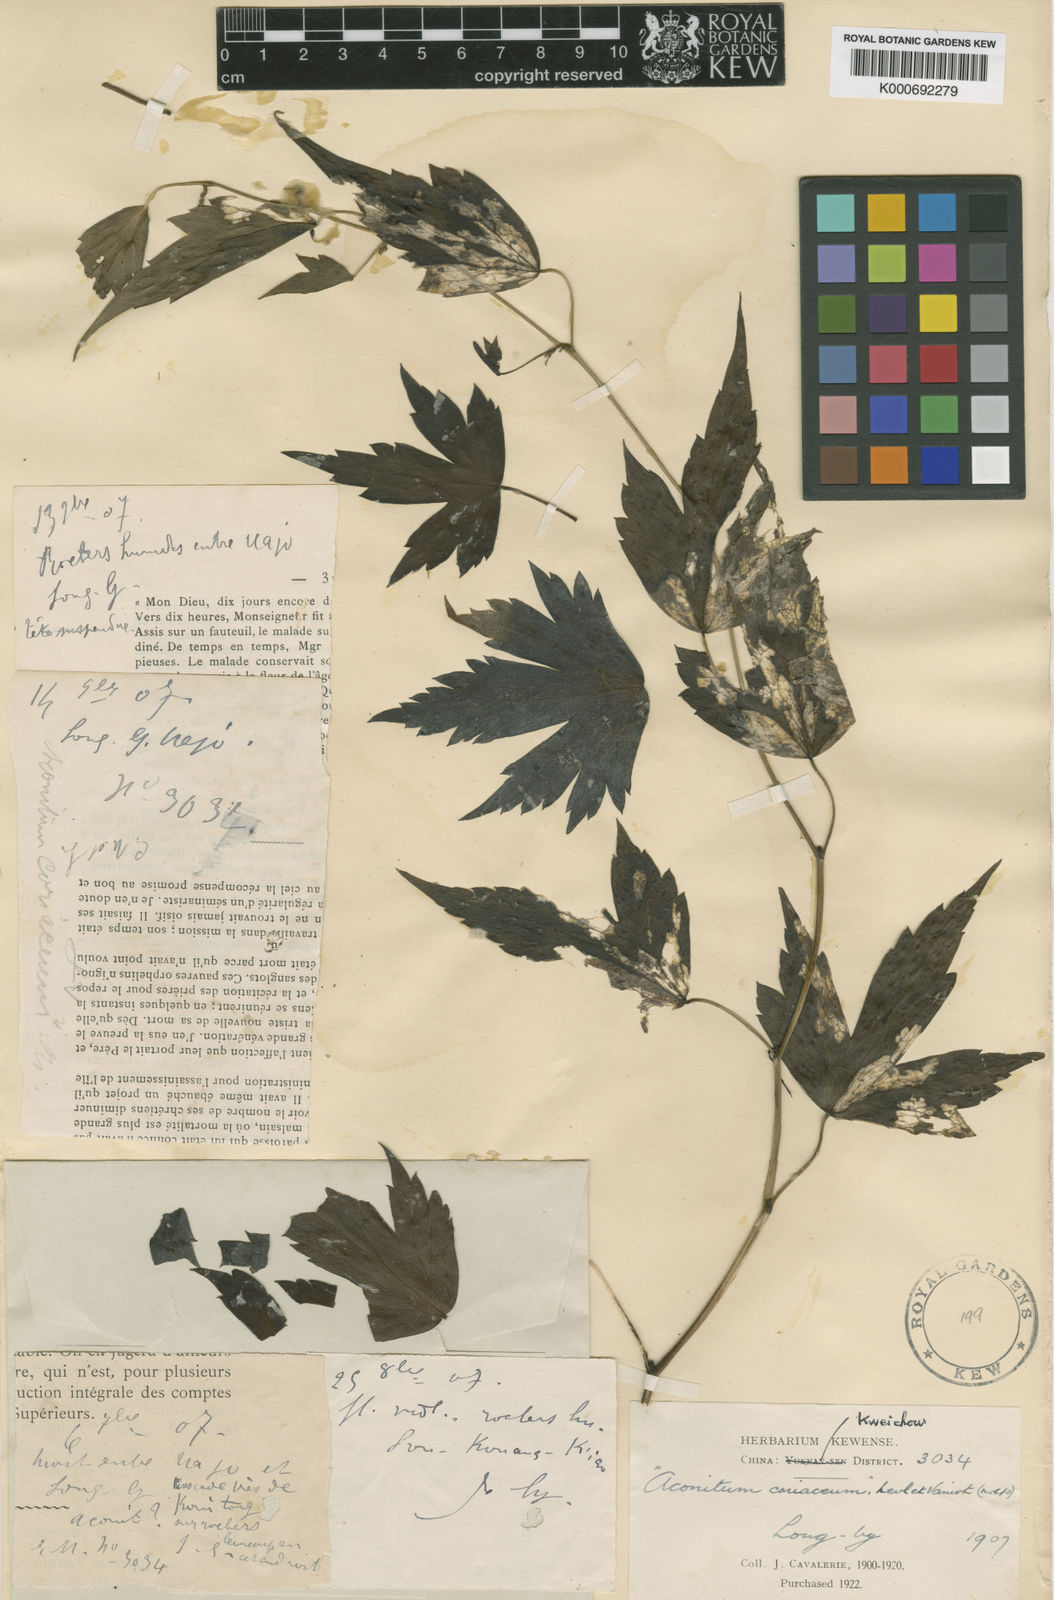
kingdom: Plantae
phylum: Tracheophyta
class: Magnoliopsida
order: Ranunculales
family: Ranunculaceae
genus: Aconitum
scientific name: Aconitum racemulosum
